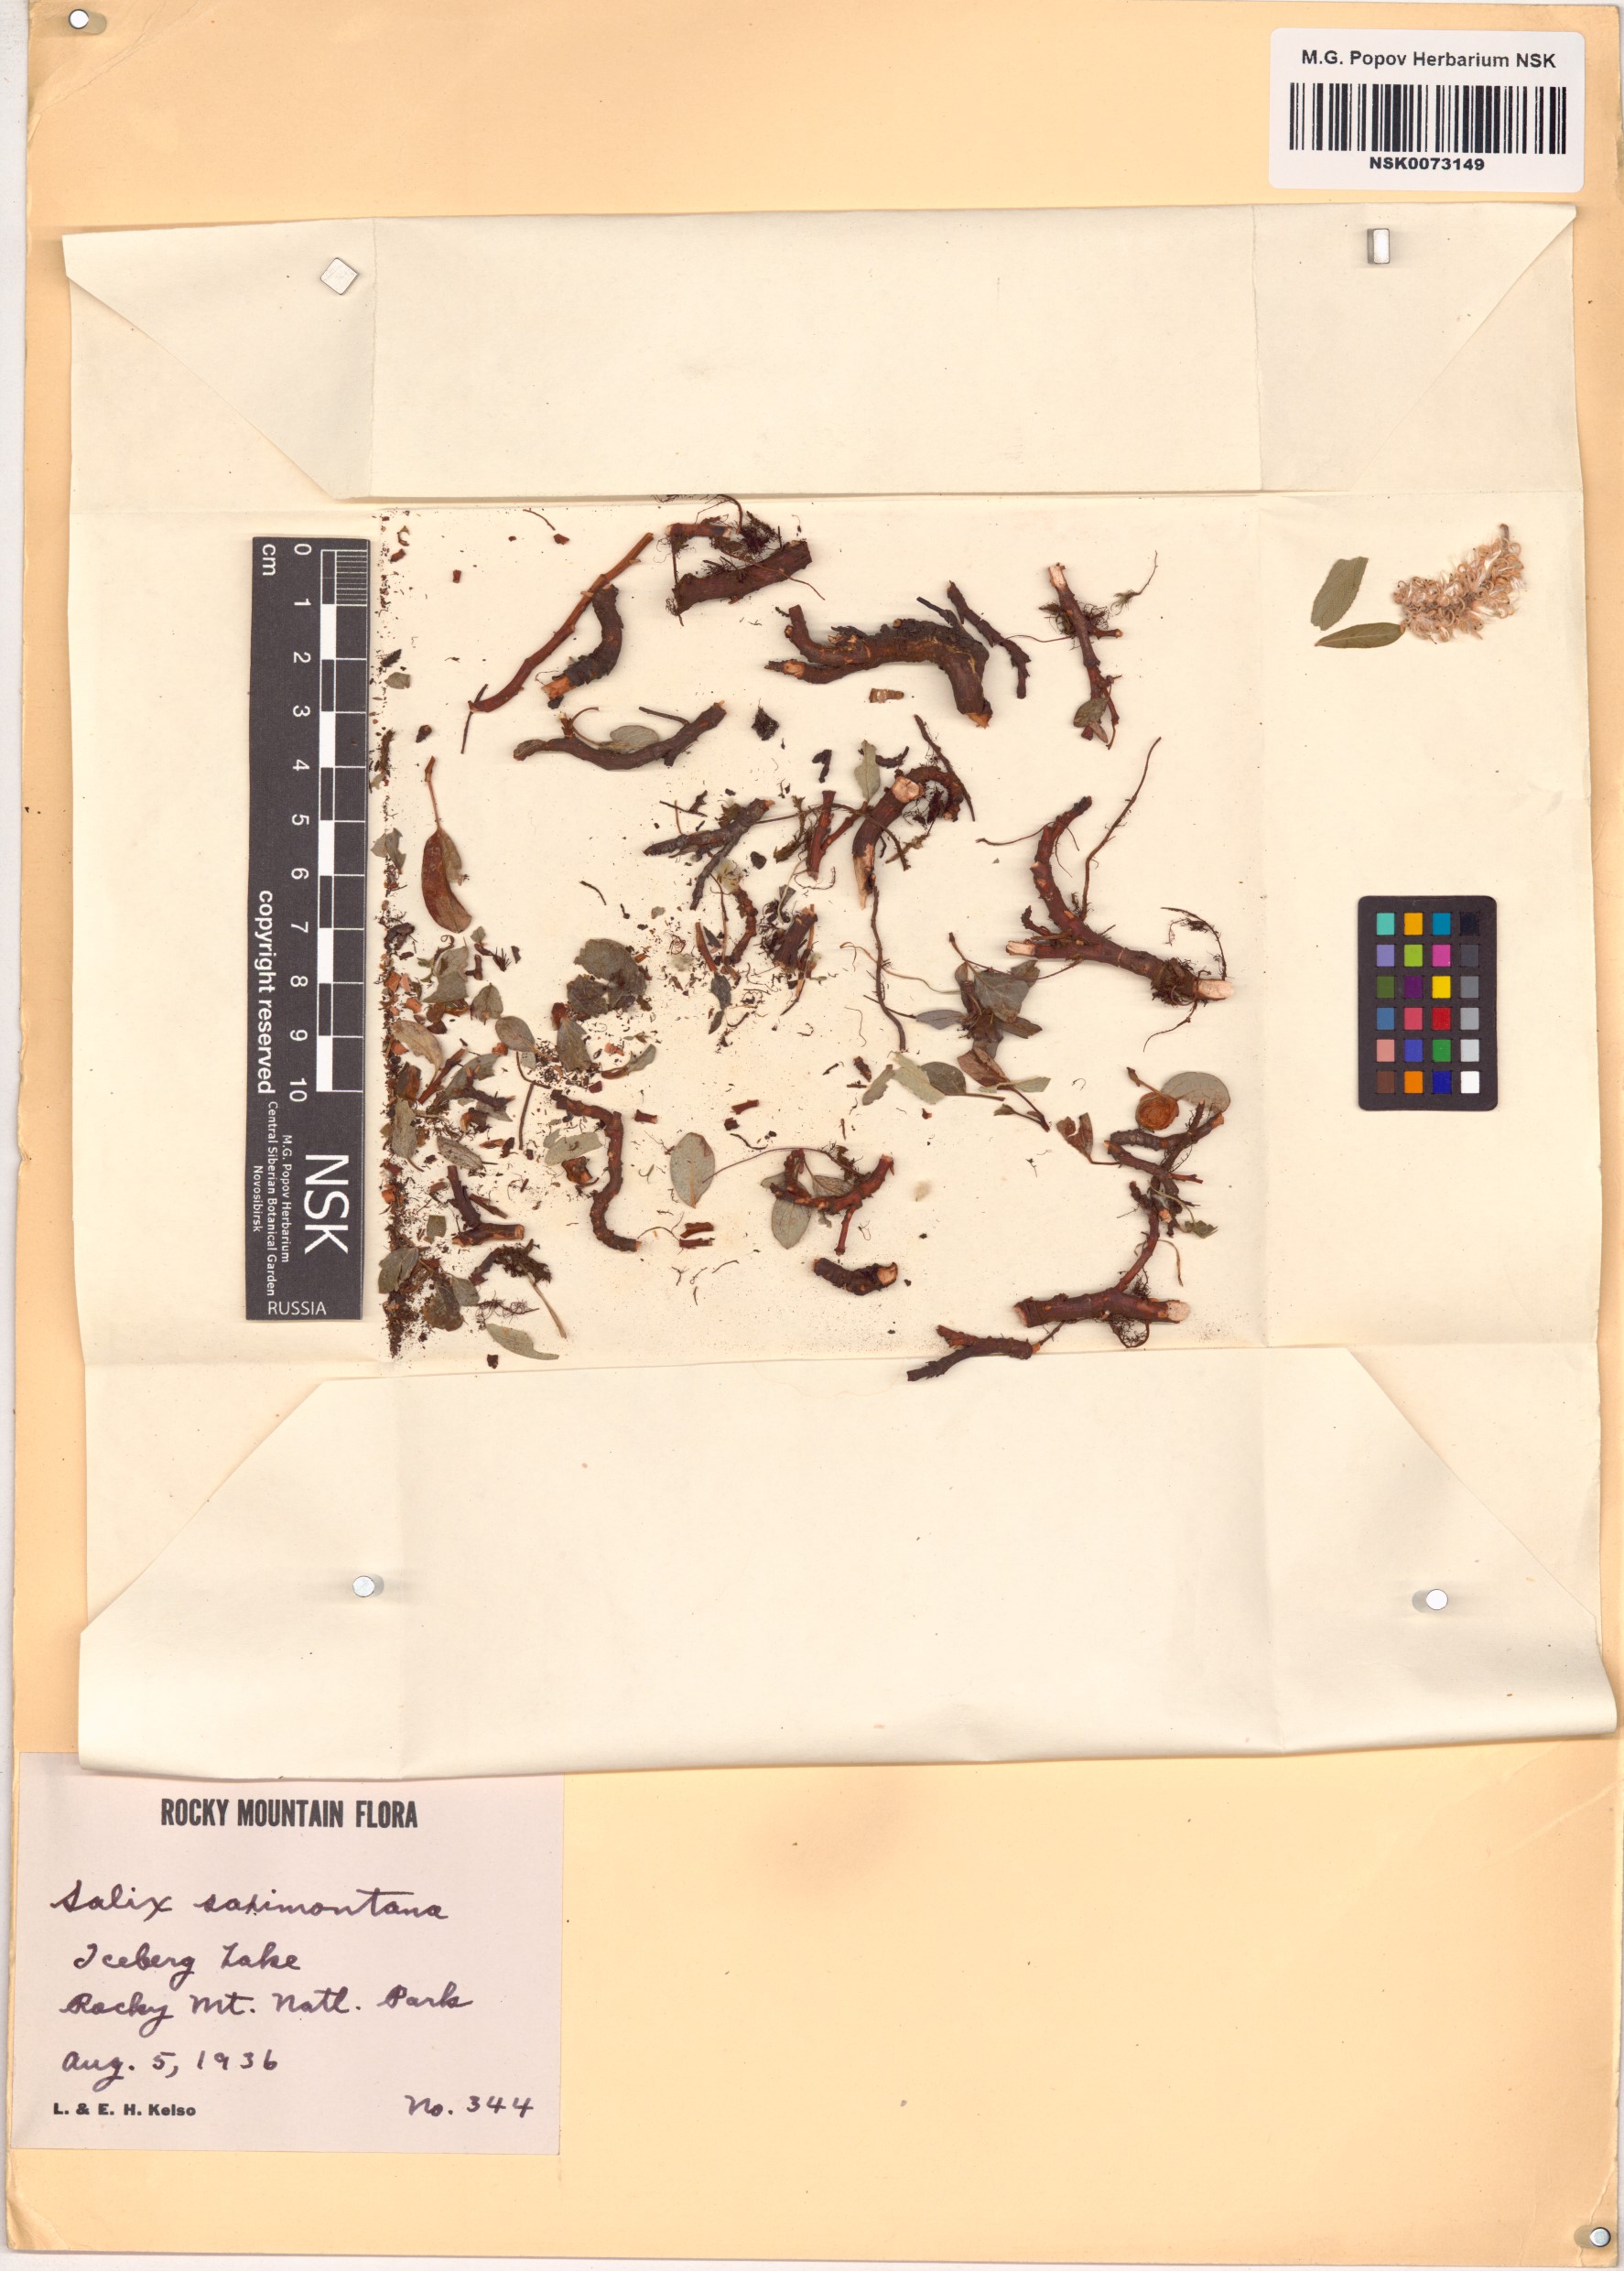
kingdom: Plantae
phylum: Tracheophyta
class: Magnoliopsida
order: Malpighiales
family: Salicaceae
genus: Salix
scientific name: Salix nivalis
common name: Dwarf snow willow
